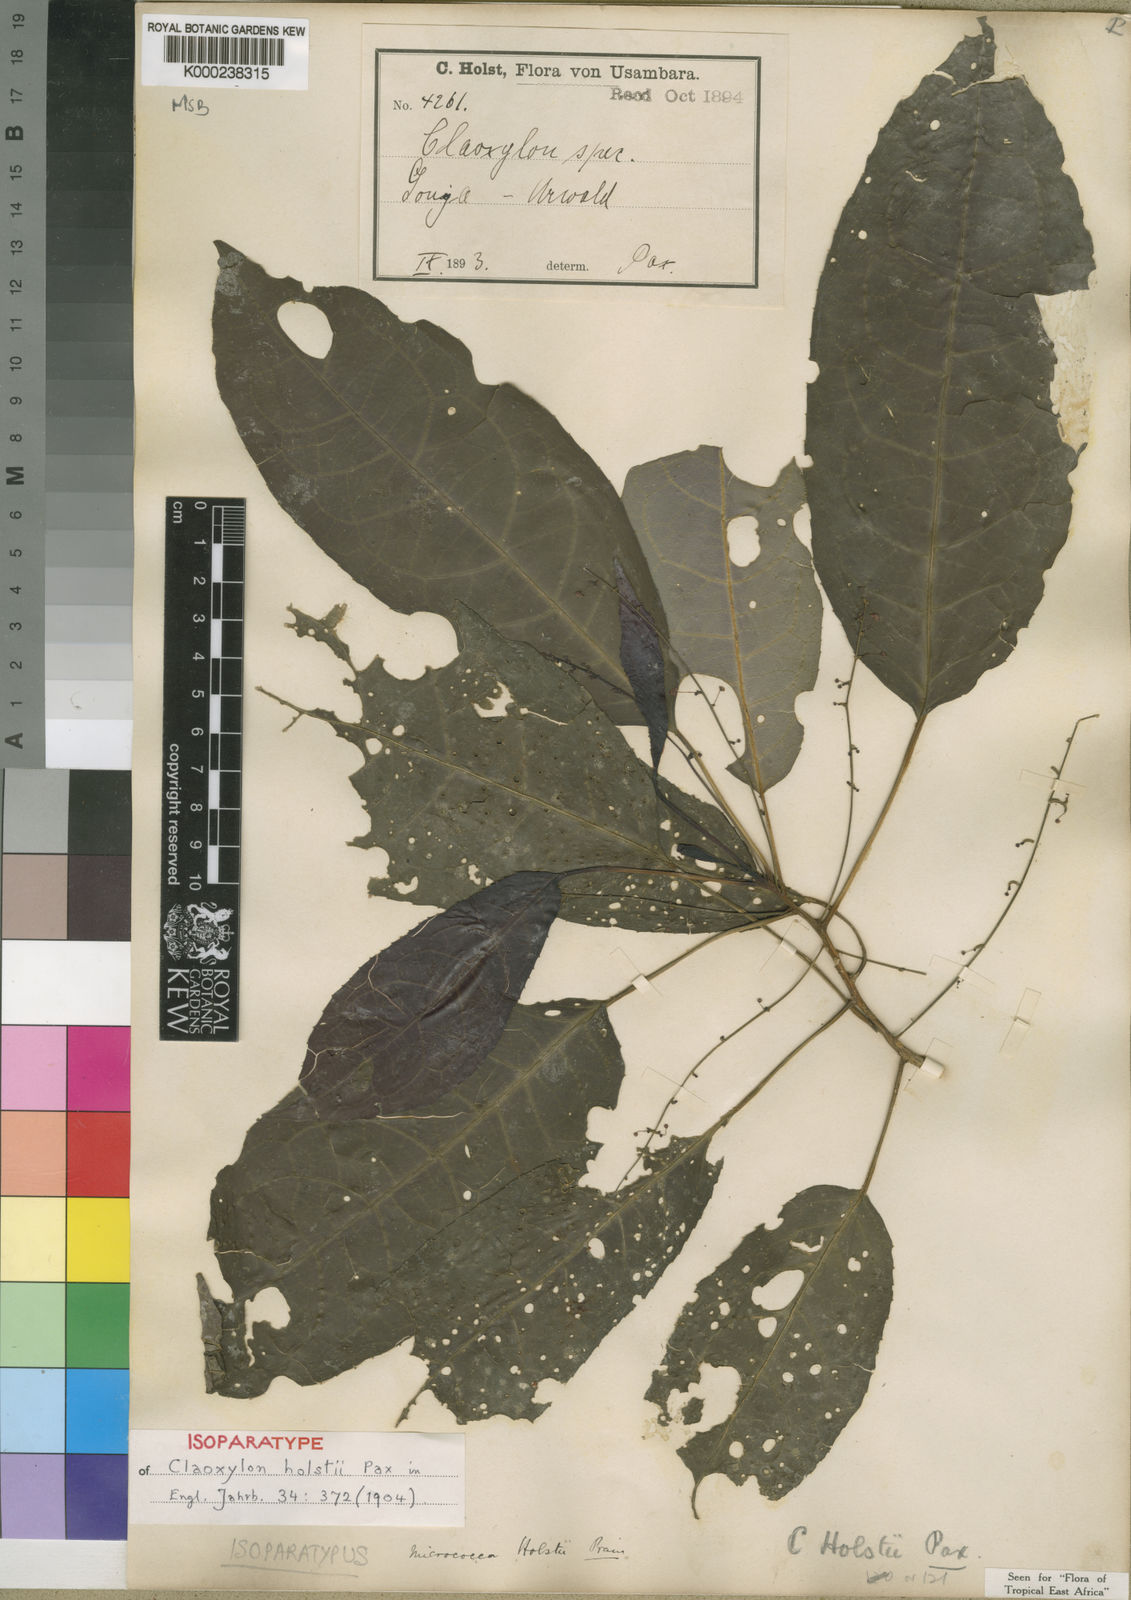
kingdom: Plantae
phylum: Tracheophyta
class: Magnoliopsida
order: Malpighiales
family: Euphorbiaceae
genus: Micrococca
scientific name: Micrococca holstii
